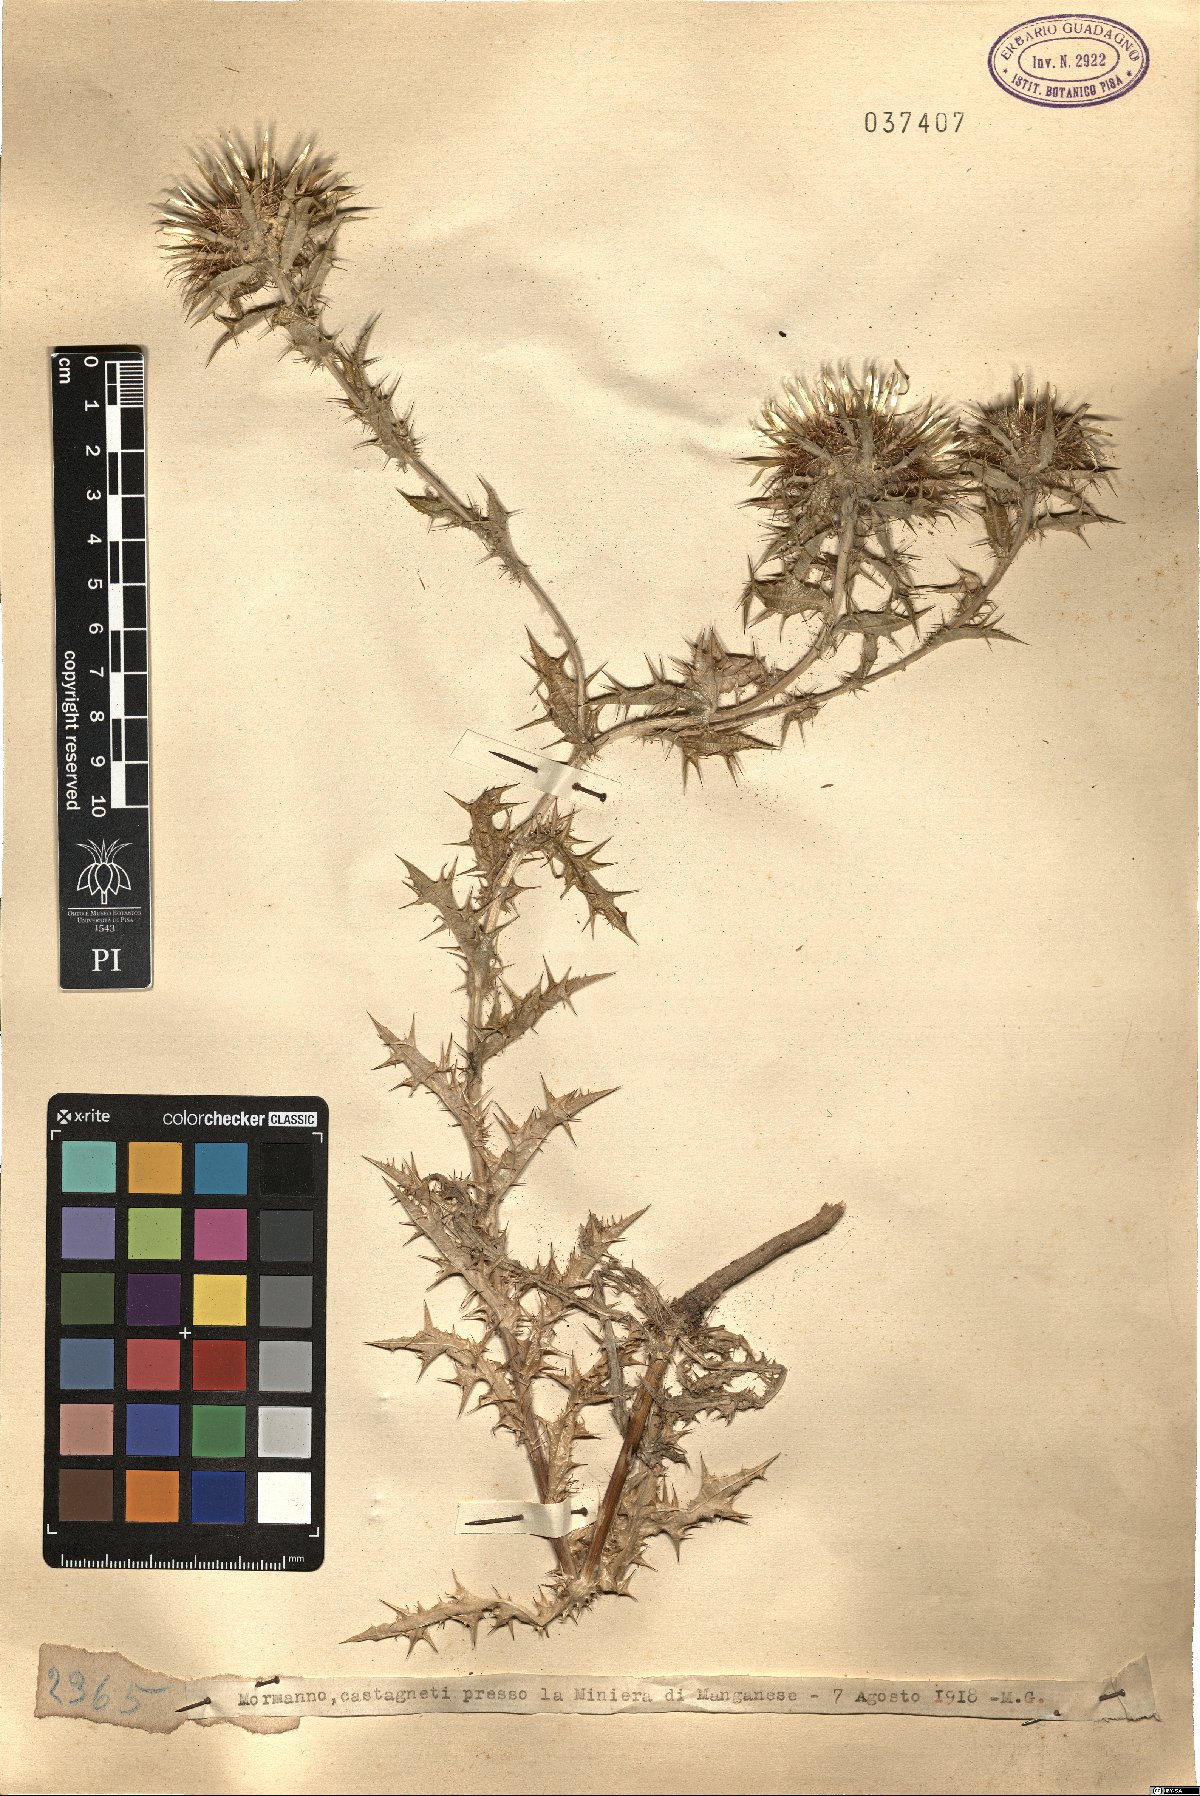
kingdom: Plantae
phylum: Tracheophyta
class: Magnoliopsida
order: Asterales
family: Asteraceae
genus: Carlina
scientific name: Carlina
